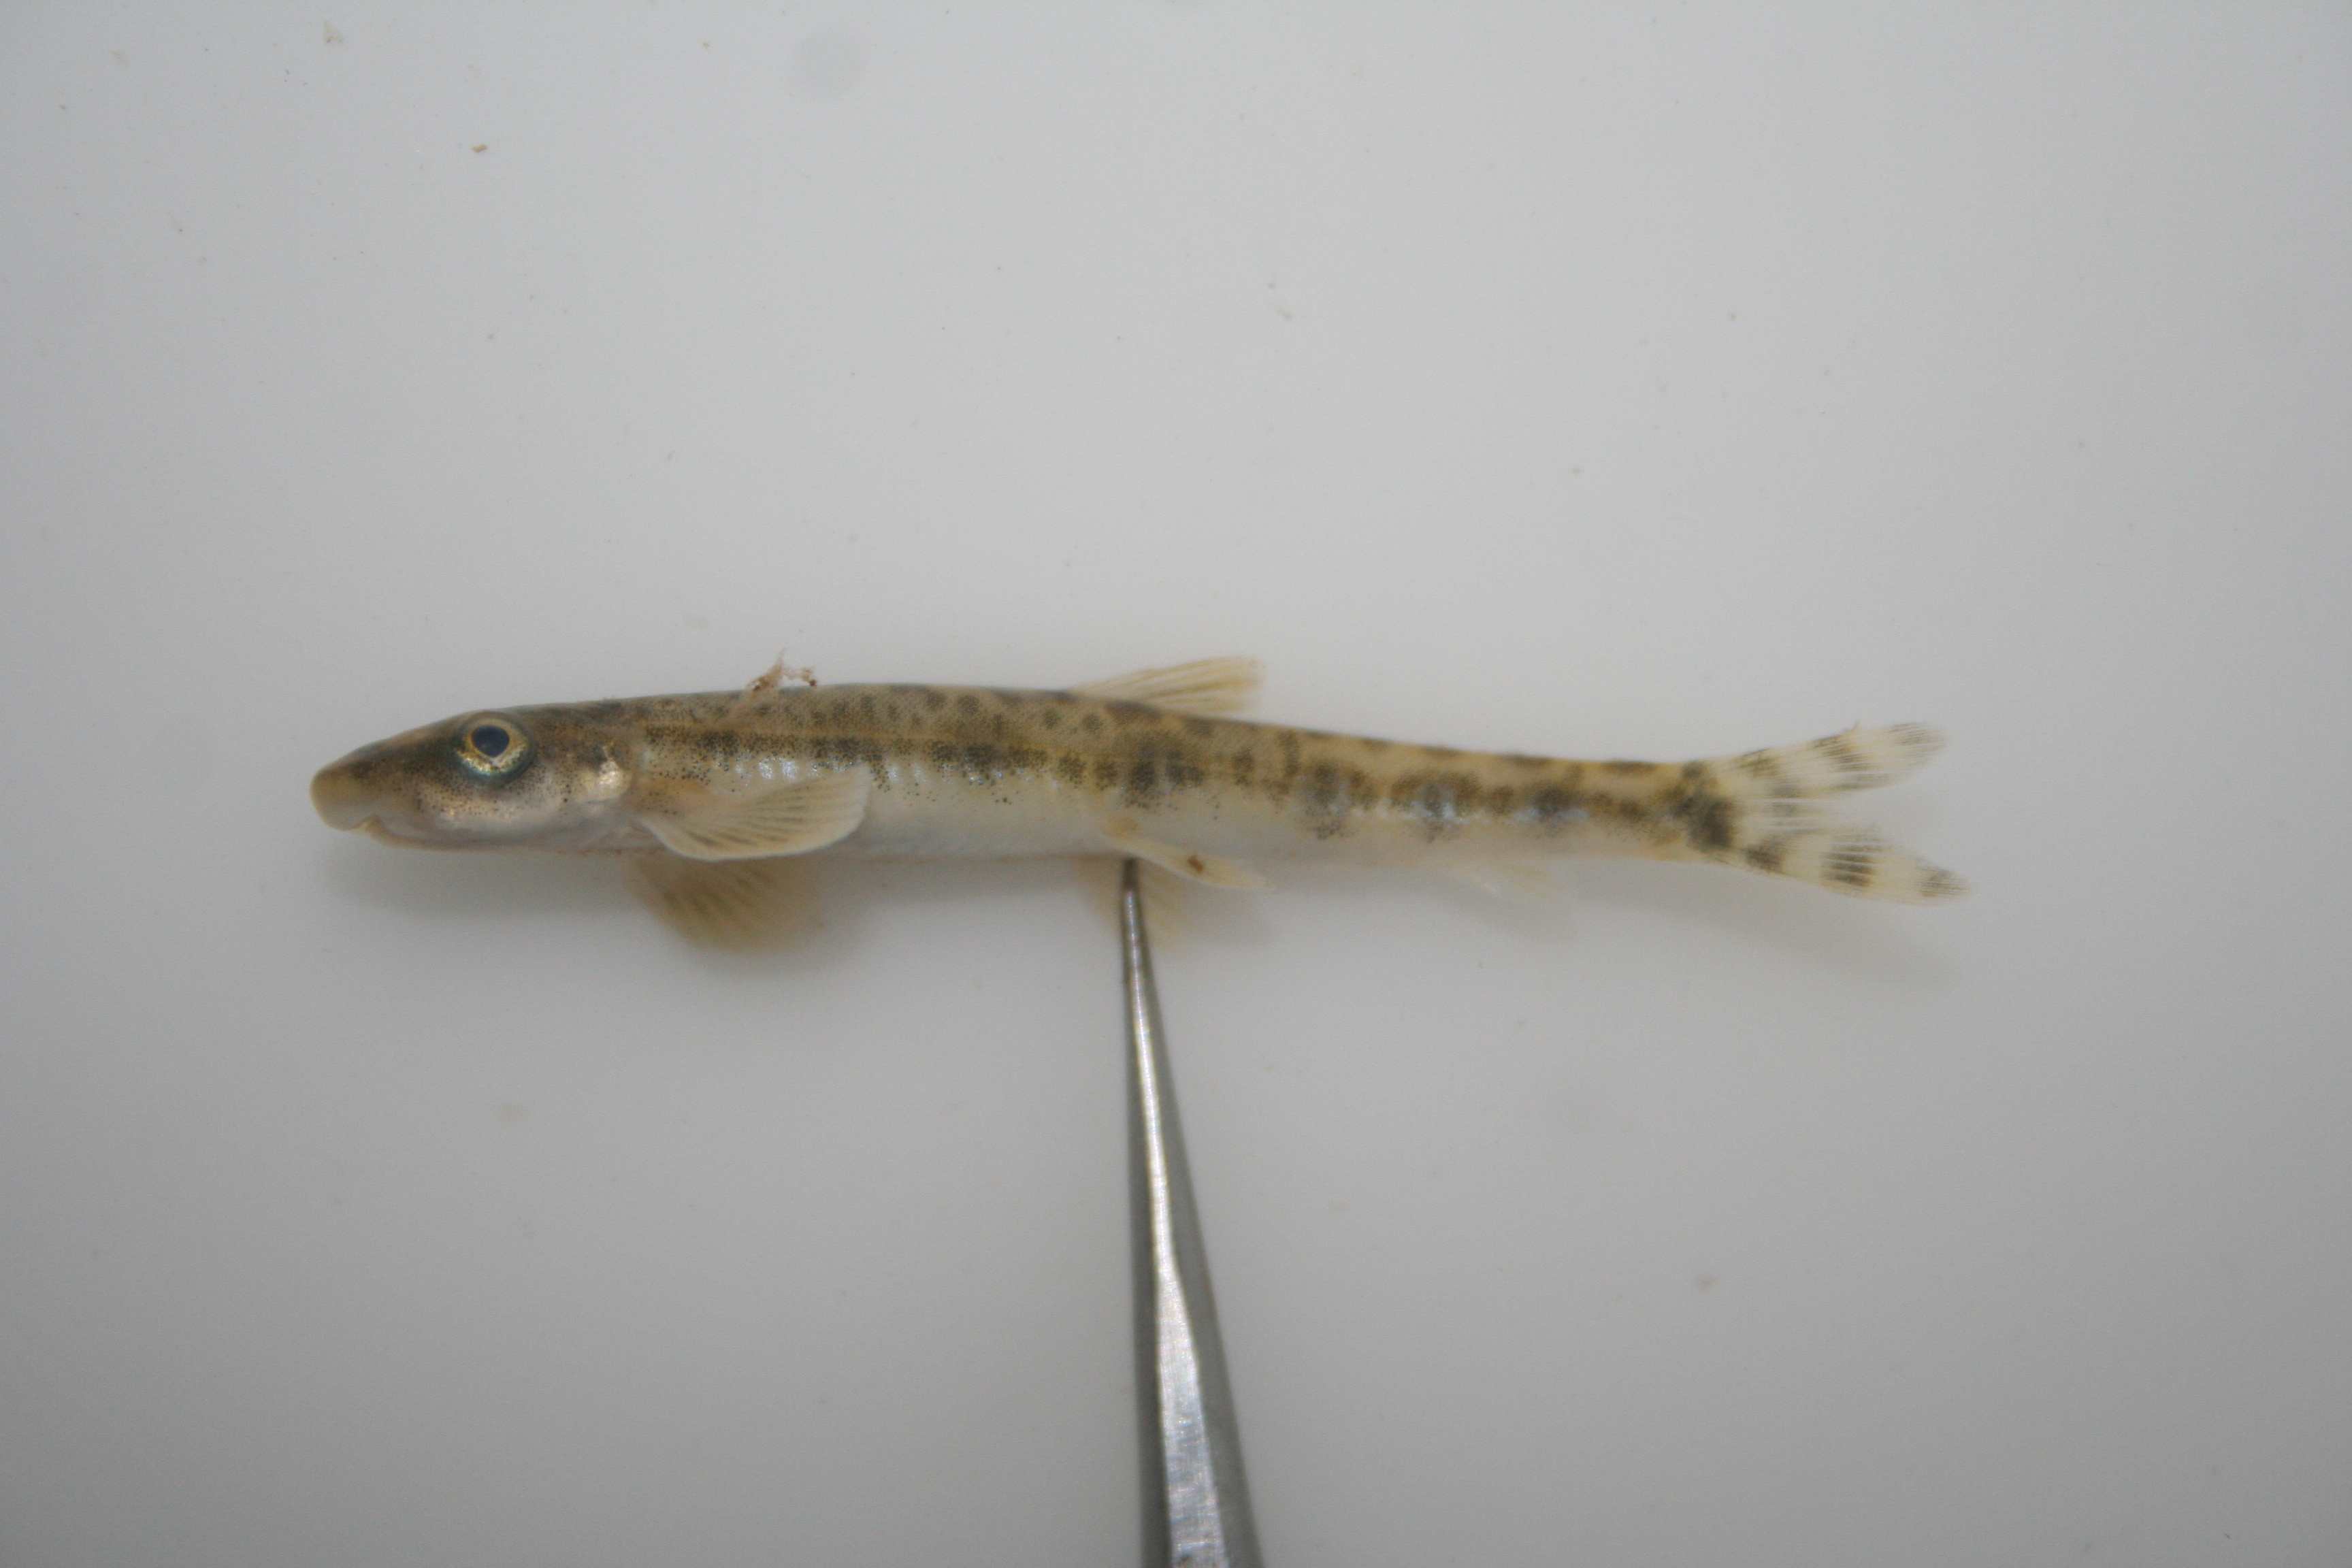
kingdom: Animalia
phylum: Chordata
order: Gonorynchiformes
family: Kneriidae
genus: Parakneria
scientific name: Parakneria marmorata
